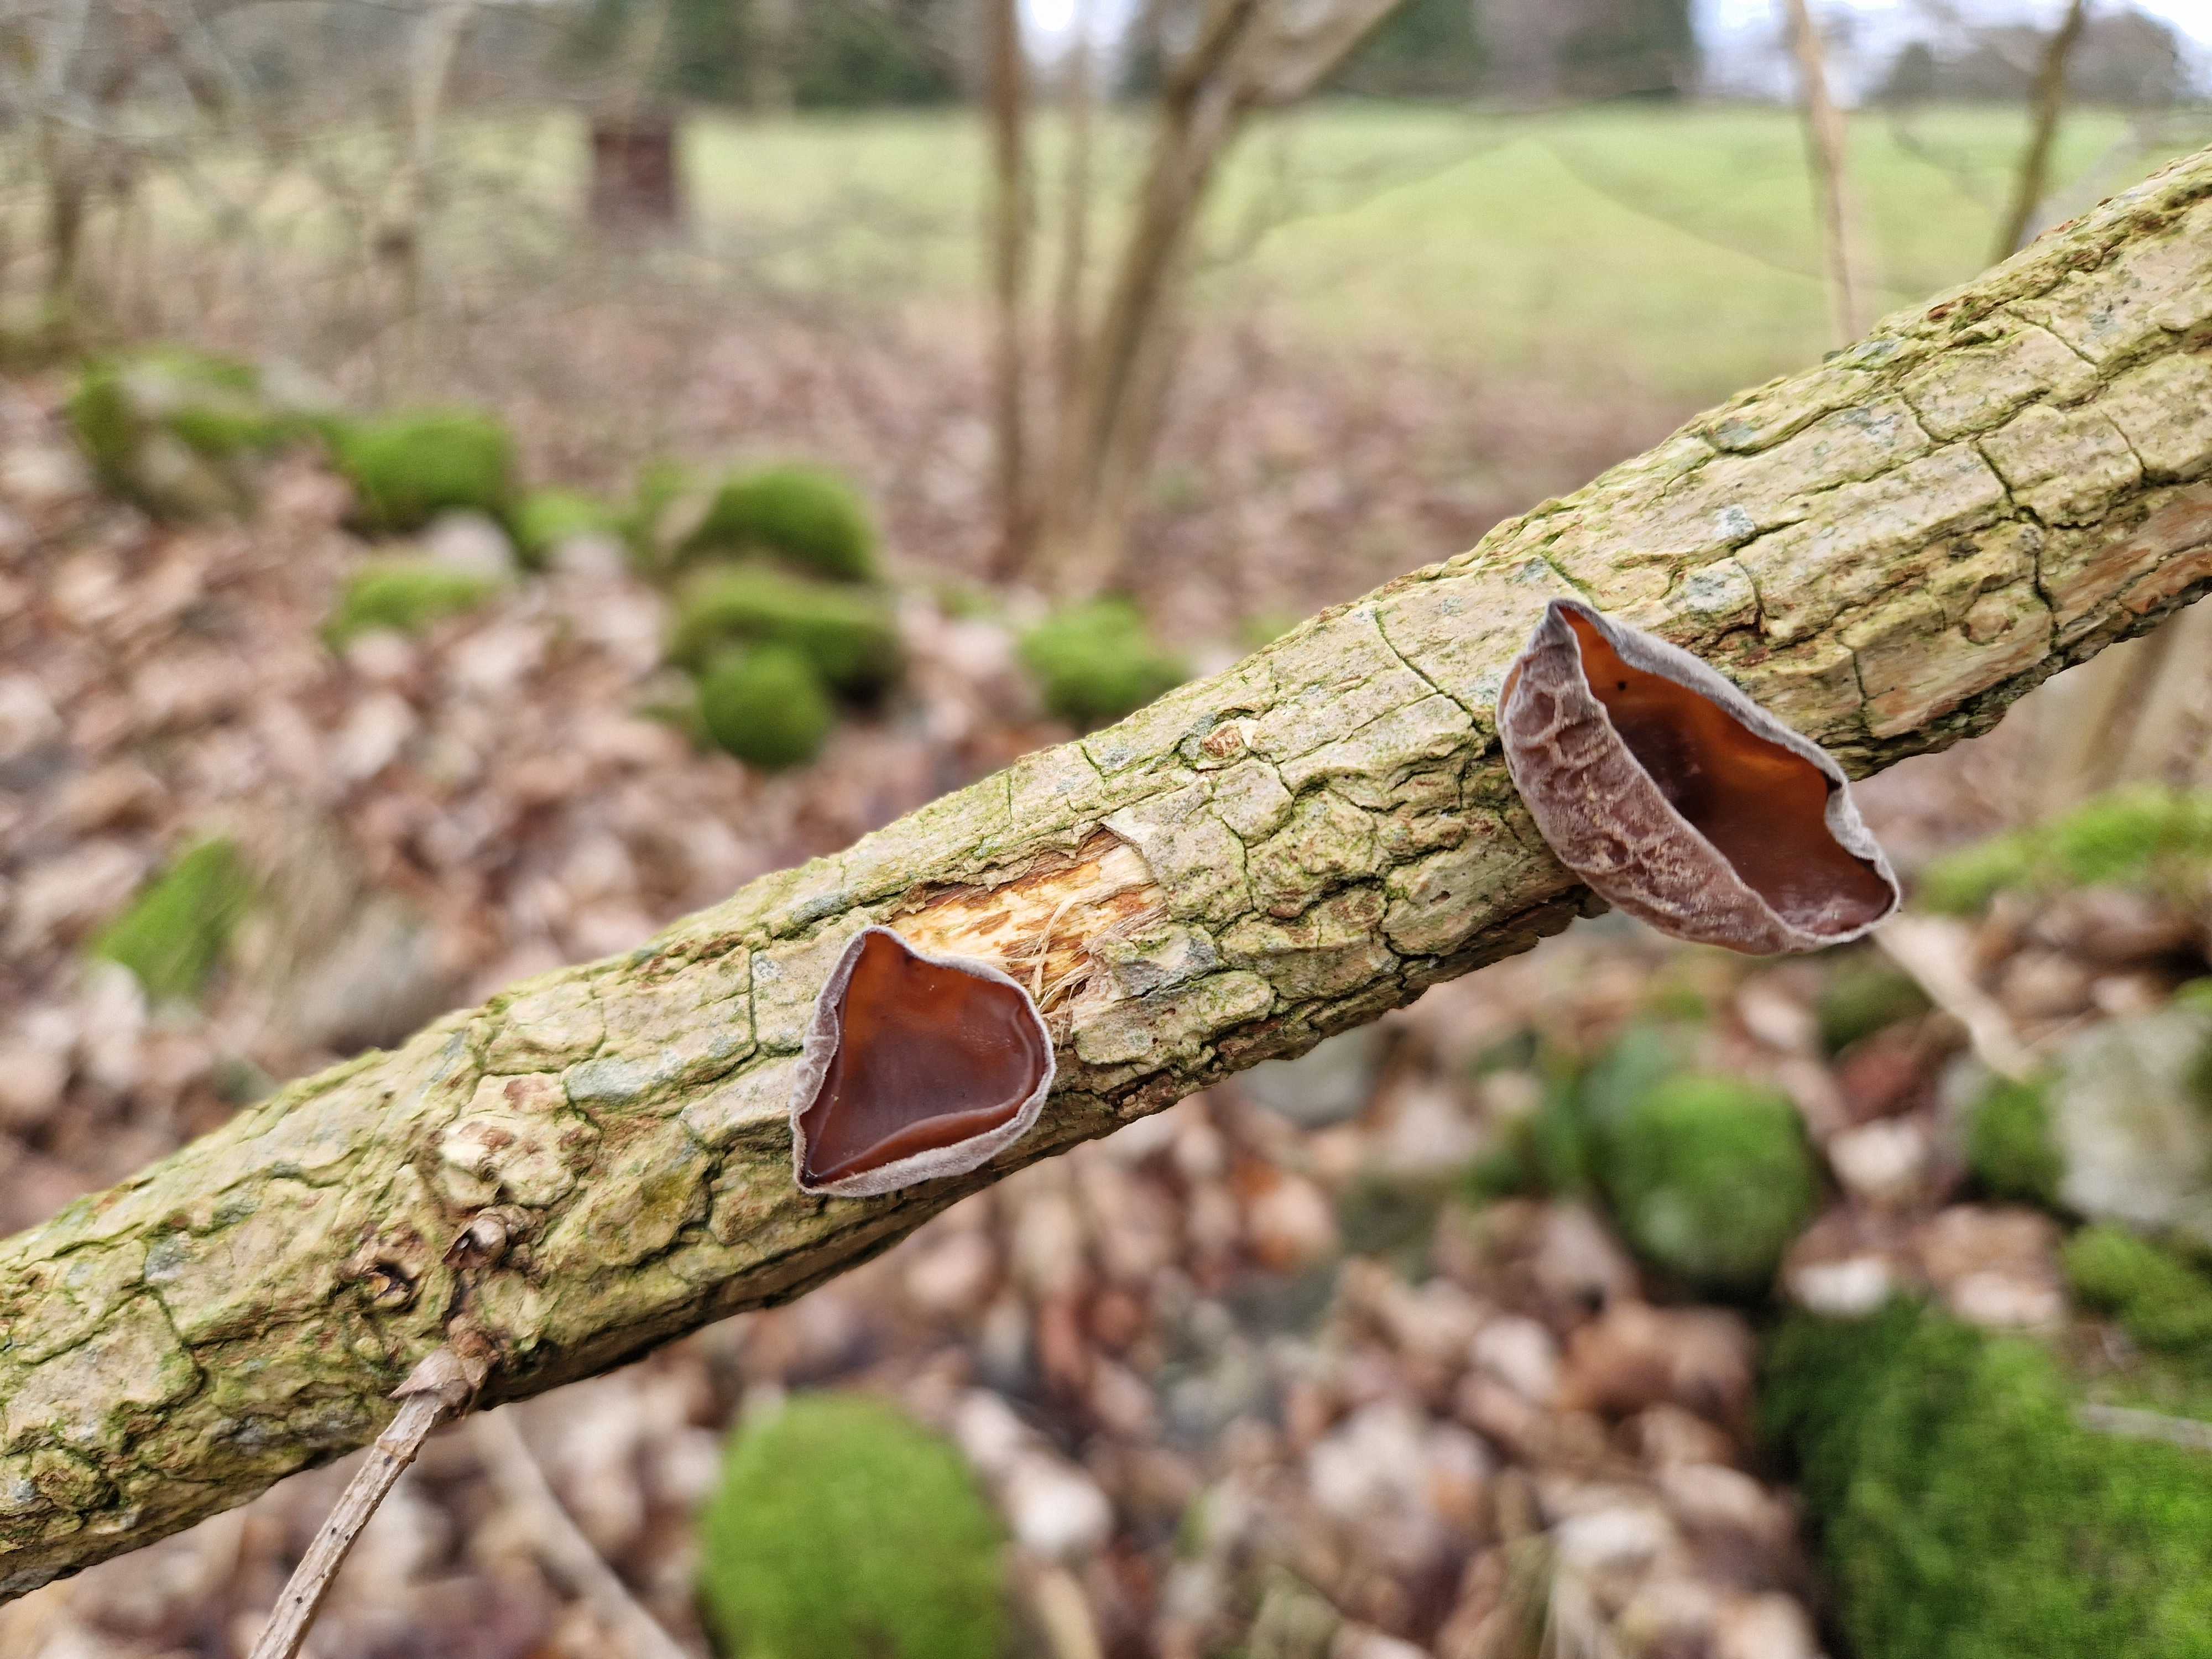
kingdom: Fungi
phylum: Basidiomycota
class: Agaricomycetes
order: Auriculariales
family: Auriculariaceae
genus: Auricularia
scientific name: Auricularia auricula-judae
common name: almindelig judasøre
